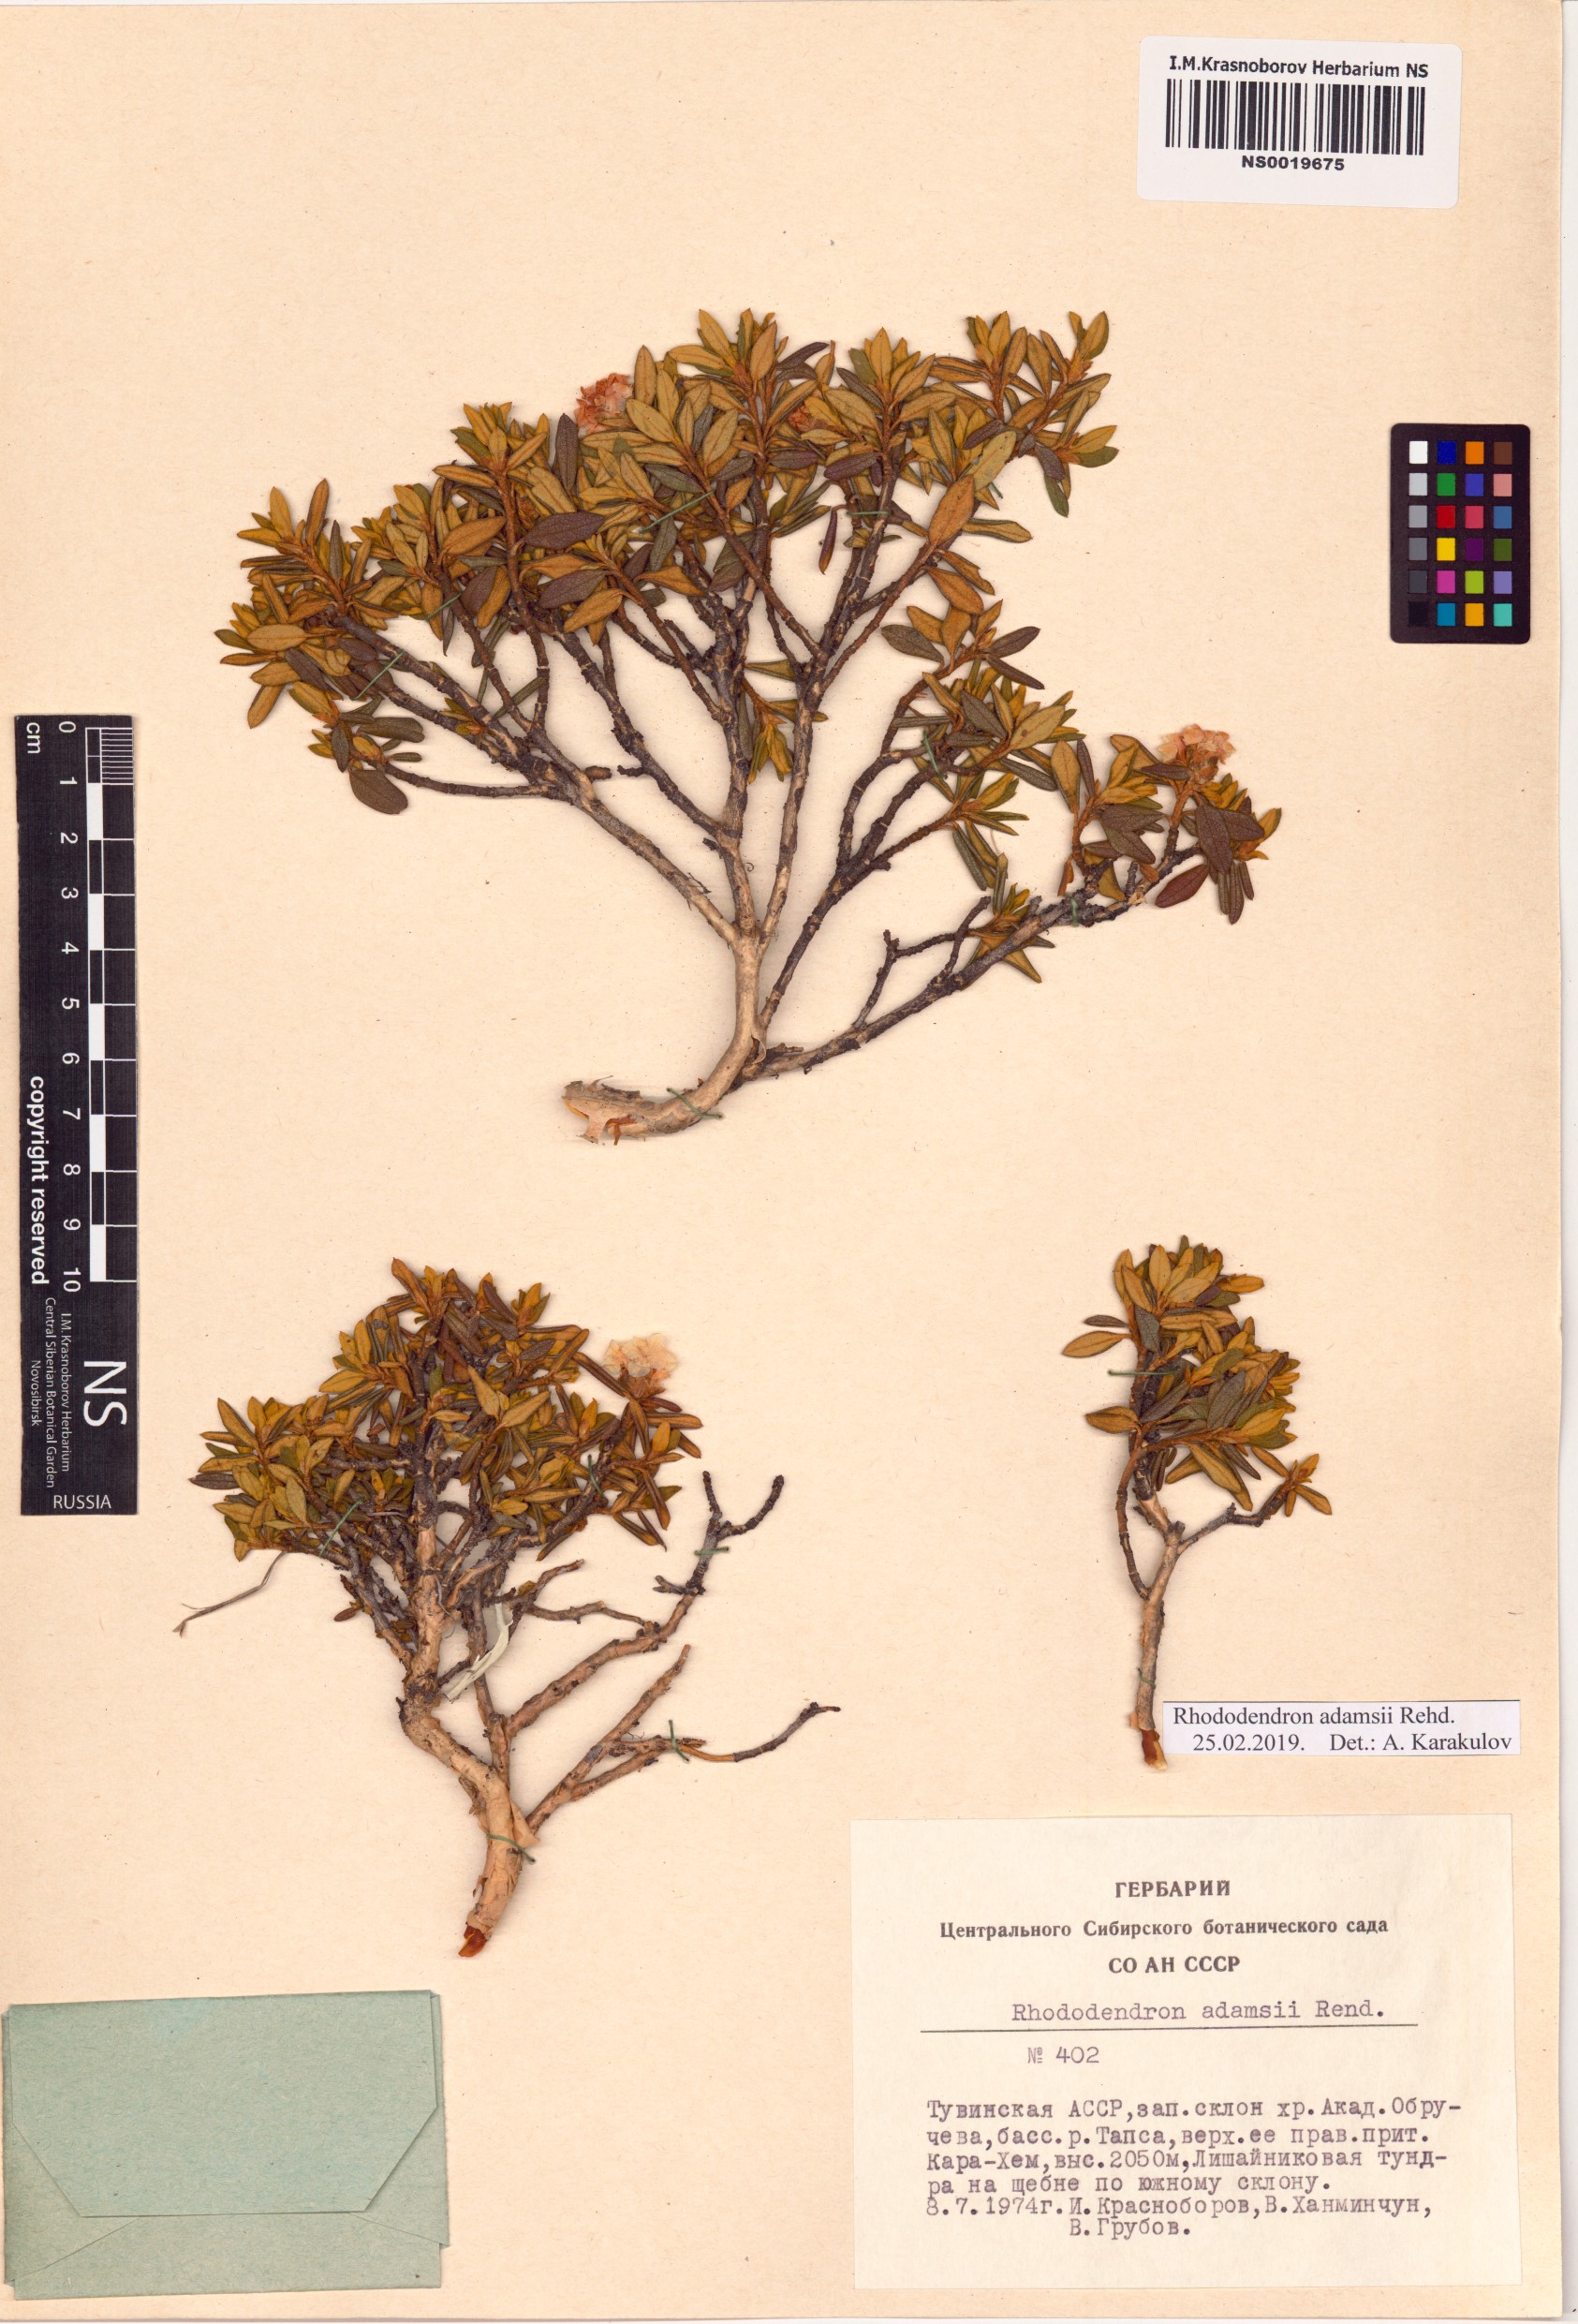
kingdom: Plantae
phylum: Tracheophyta
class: Magnoliopsida
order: Ericales
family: Ericaceae
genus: Rhododendron
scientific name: Rhododendron adamsii
